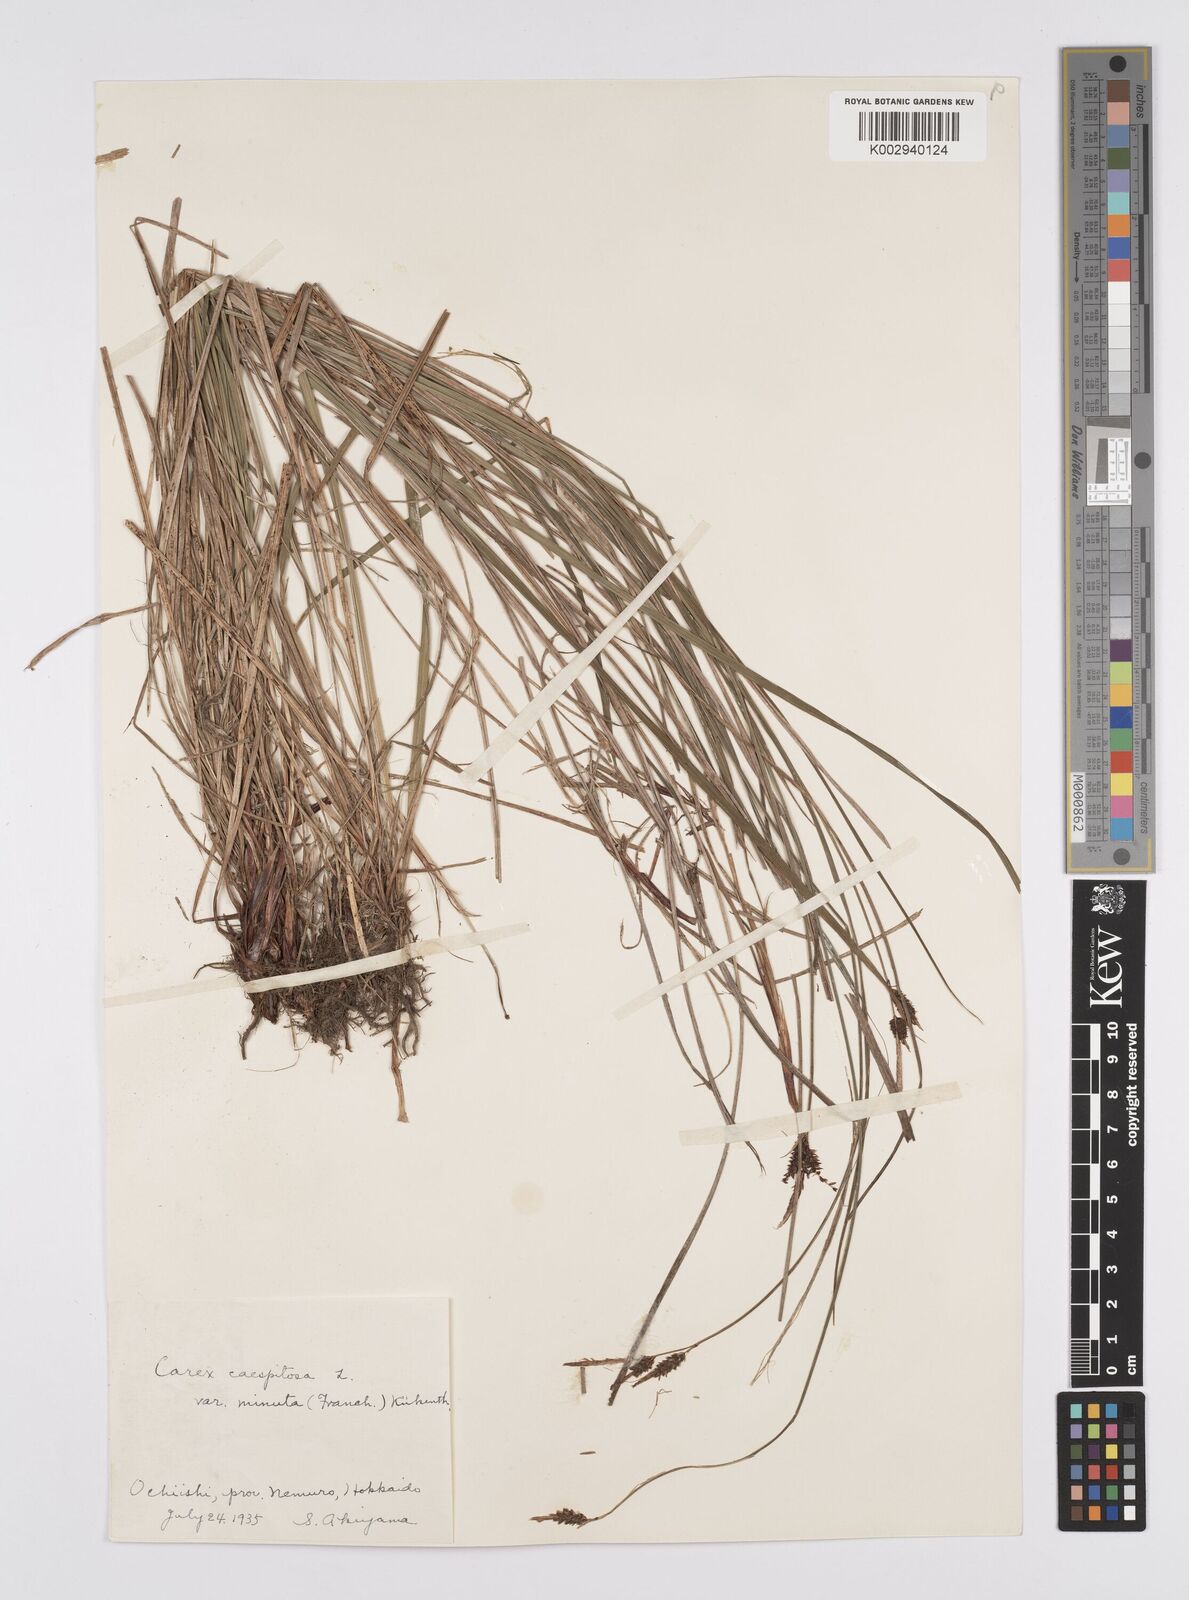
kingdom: Plantae
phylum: Tracheophyta
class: Liliopsida
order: Poales
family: Cyperaceae
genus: Carex
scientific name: Carex cespitosa
